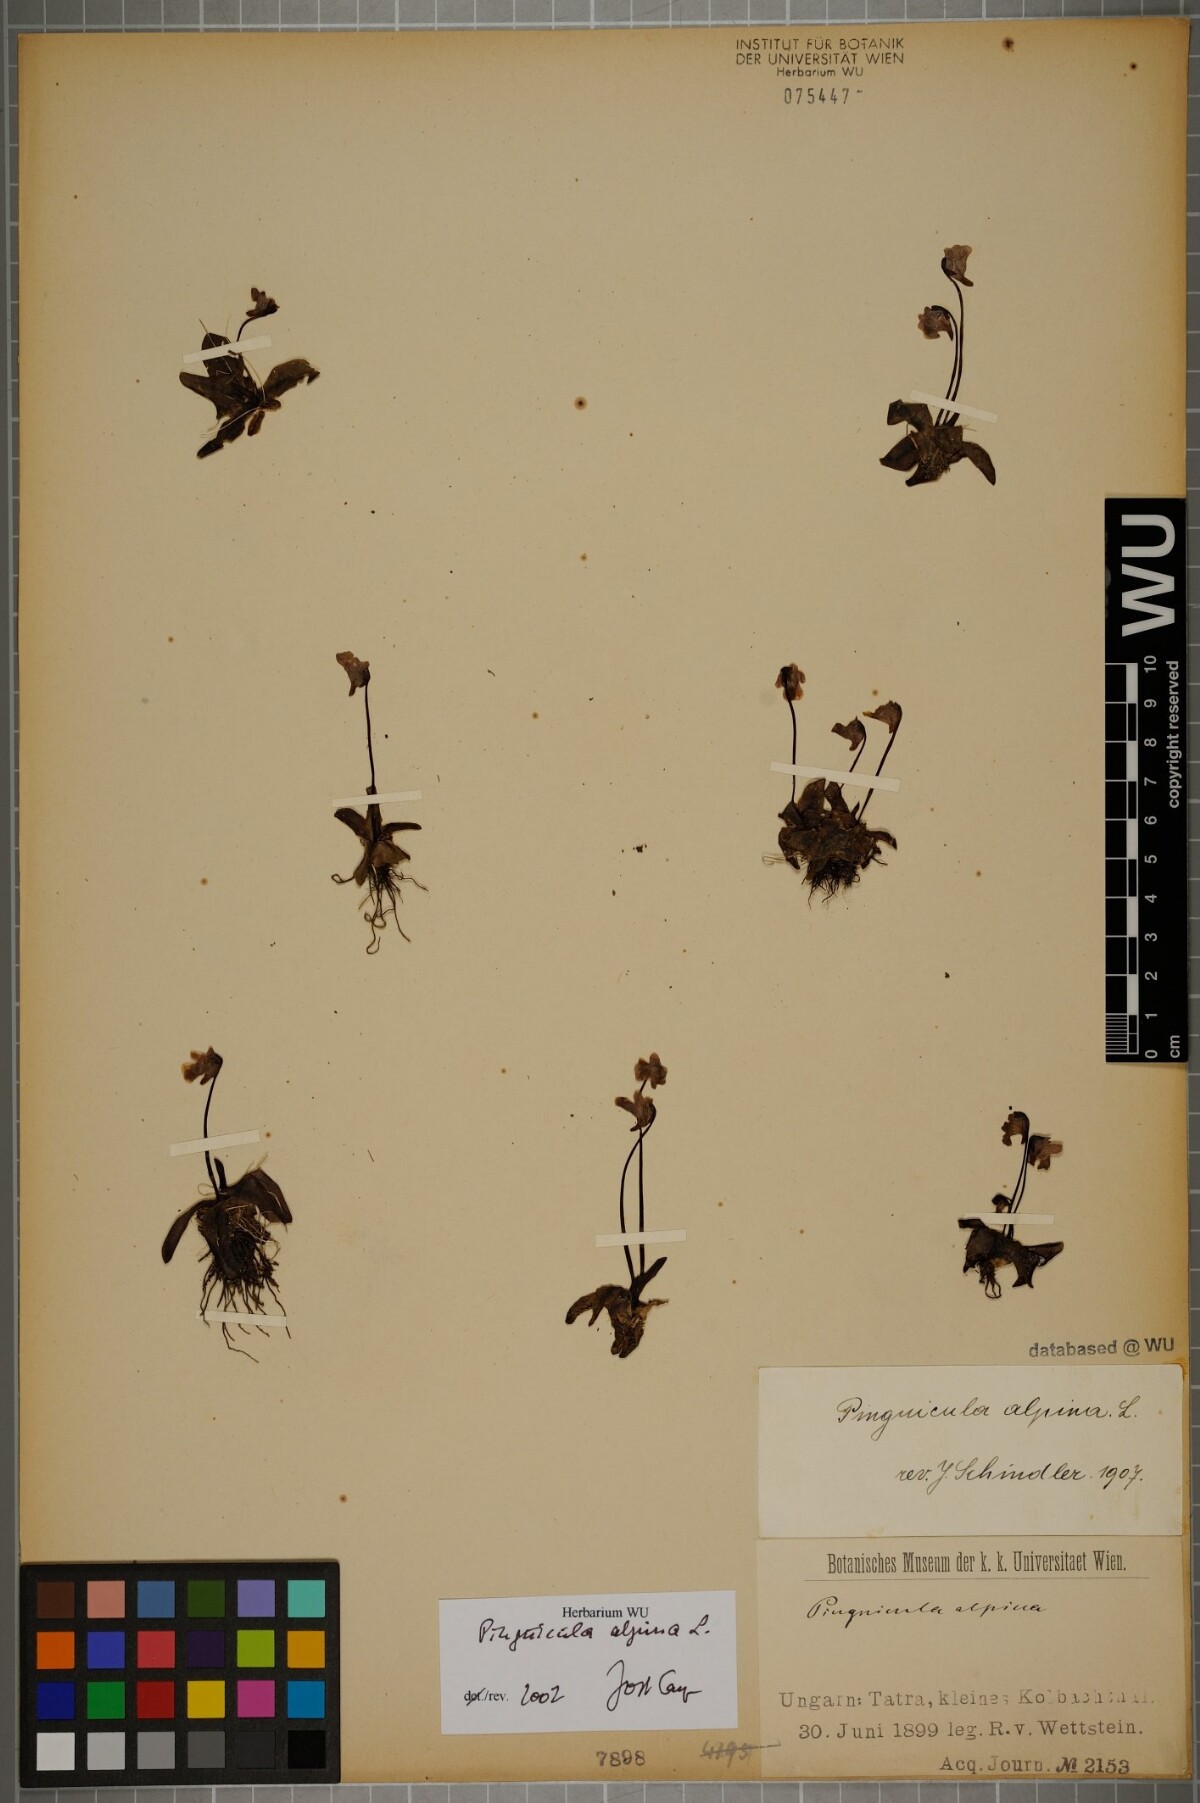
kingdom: Plantae
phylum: Tracheophyta
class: Magnoliopsida
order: Lamiales
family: Lentibulariaceae
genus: Pinguicula
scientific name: Pinguicula alpina
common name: Alpine butterwort
